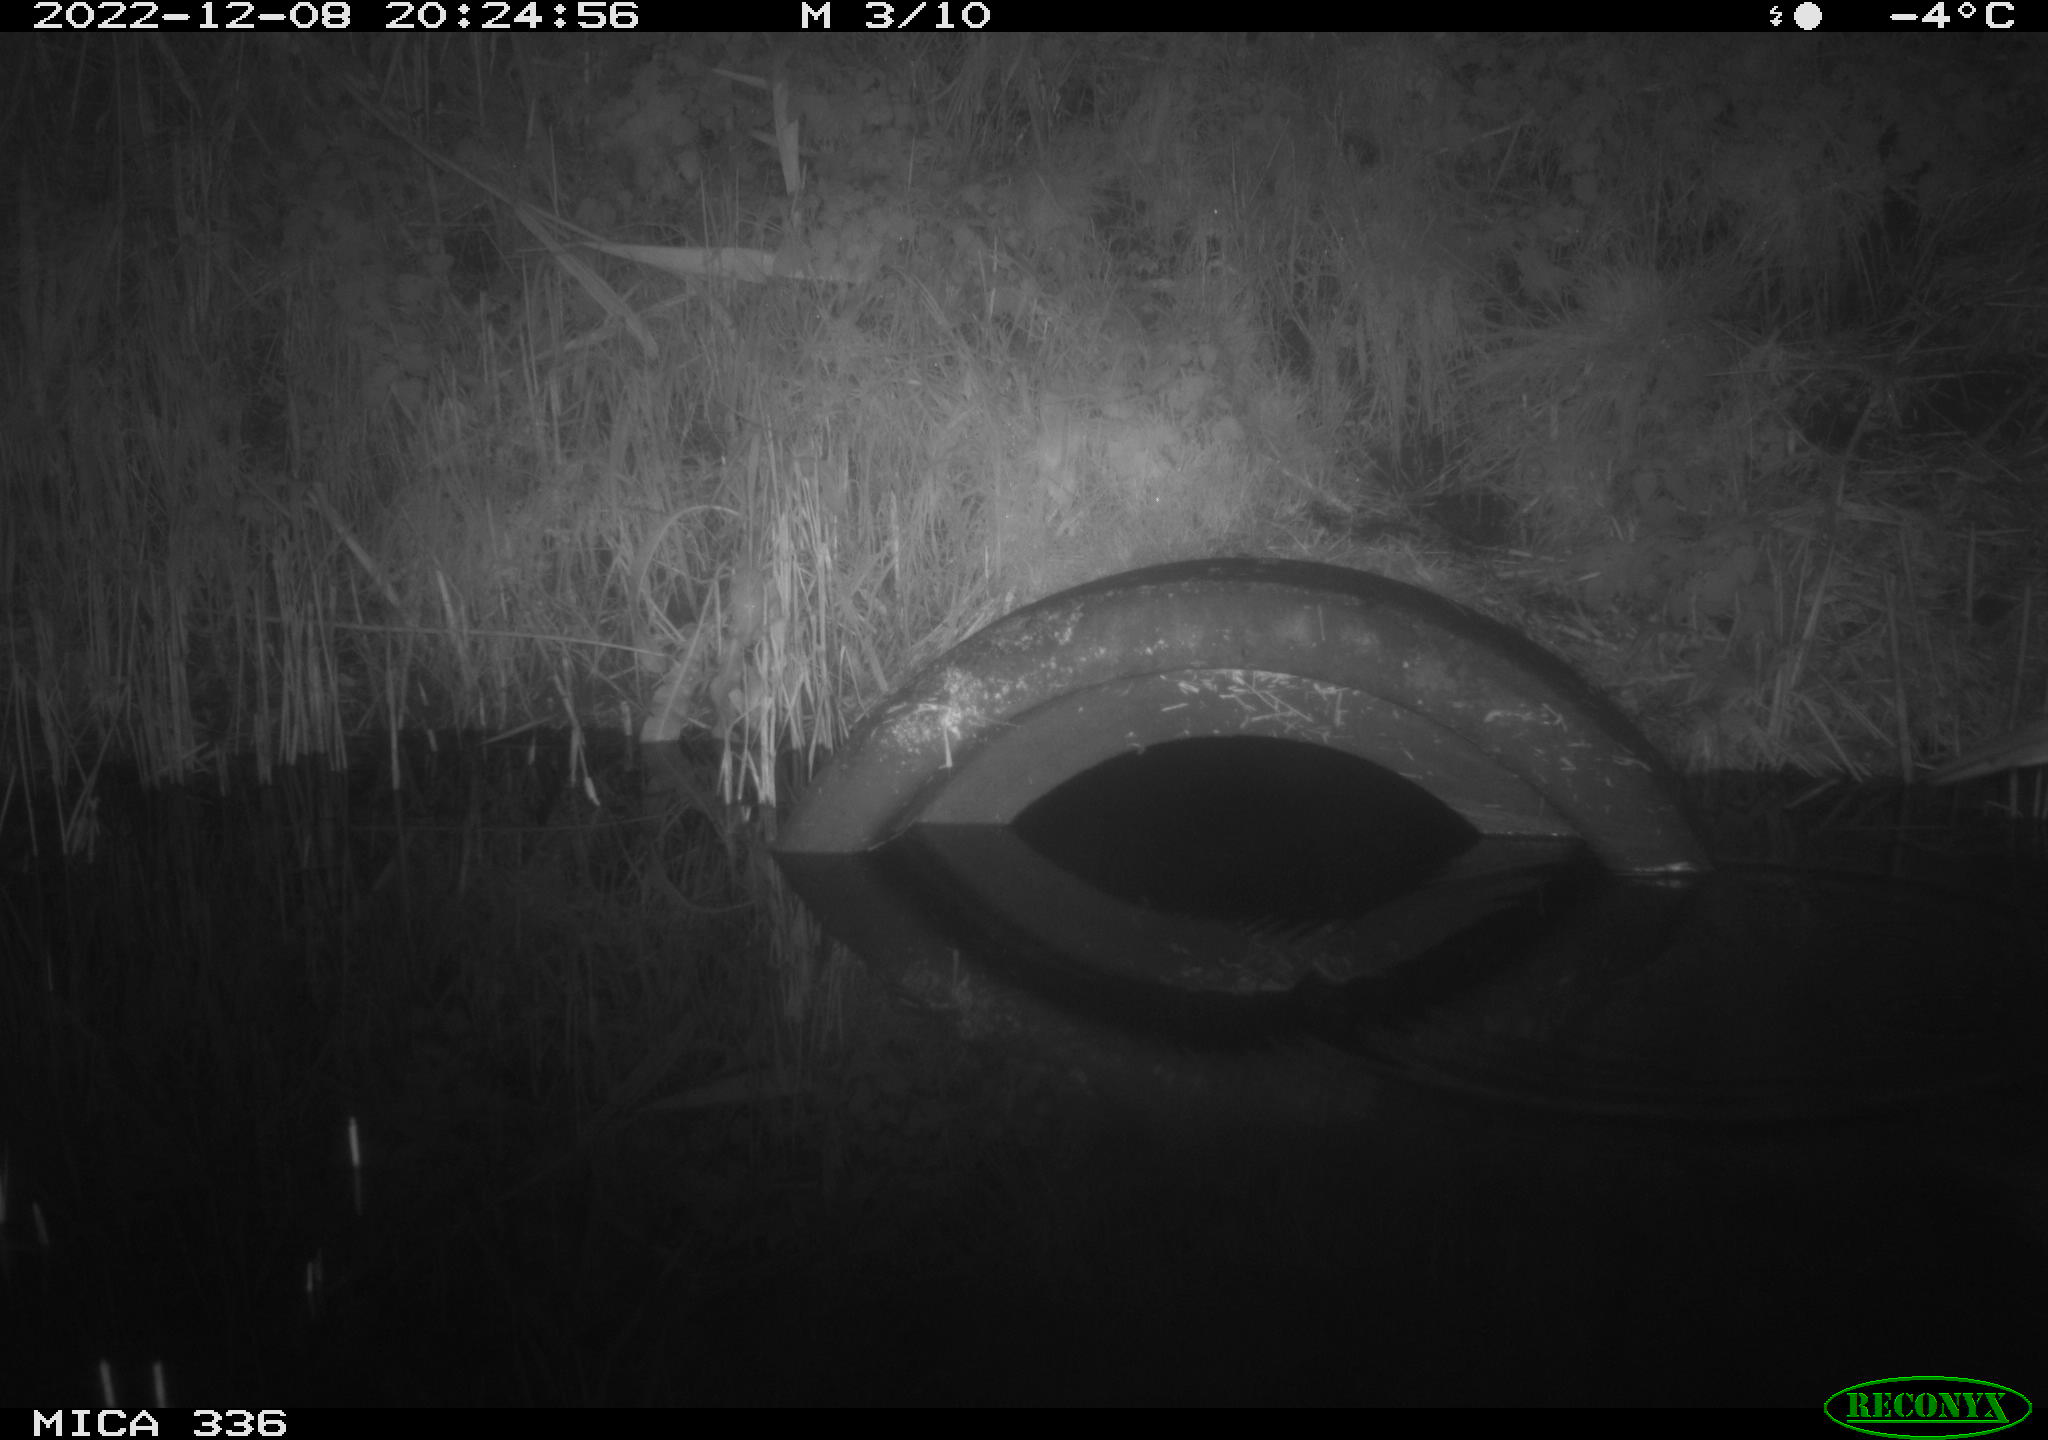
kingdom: Animalia
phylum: Chordata
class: Aves
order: Pelecaniformes
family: Ardeidae
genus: Ardea
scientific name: Ardea cinerea
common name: Grey heron
